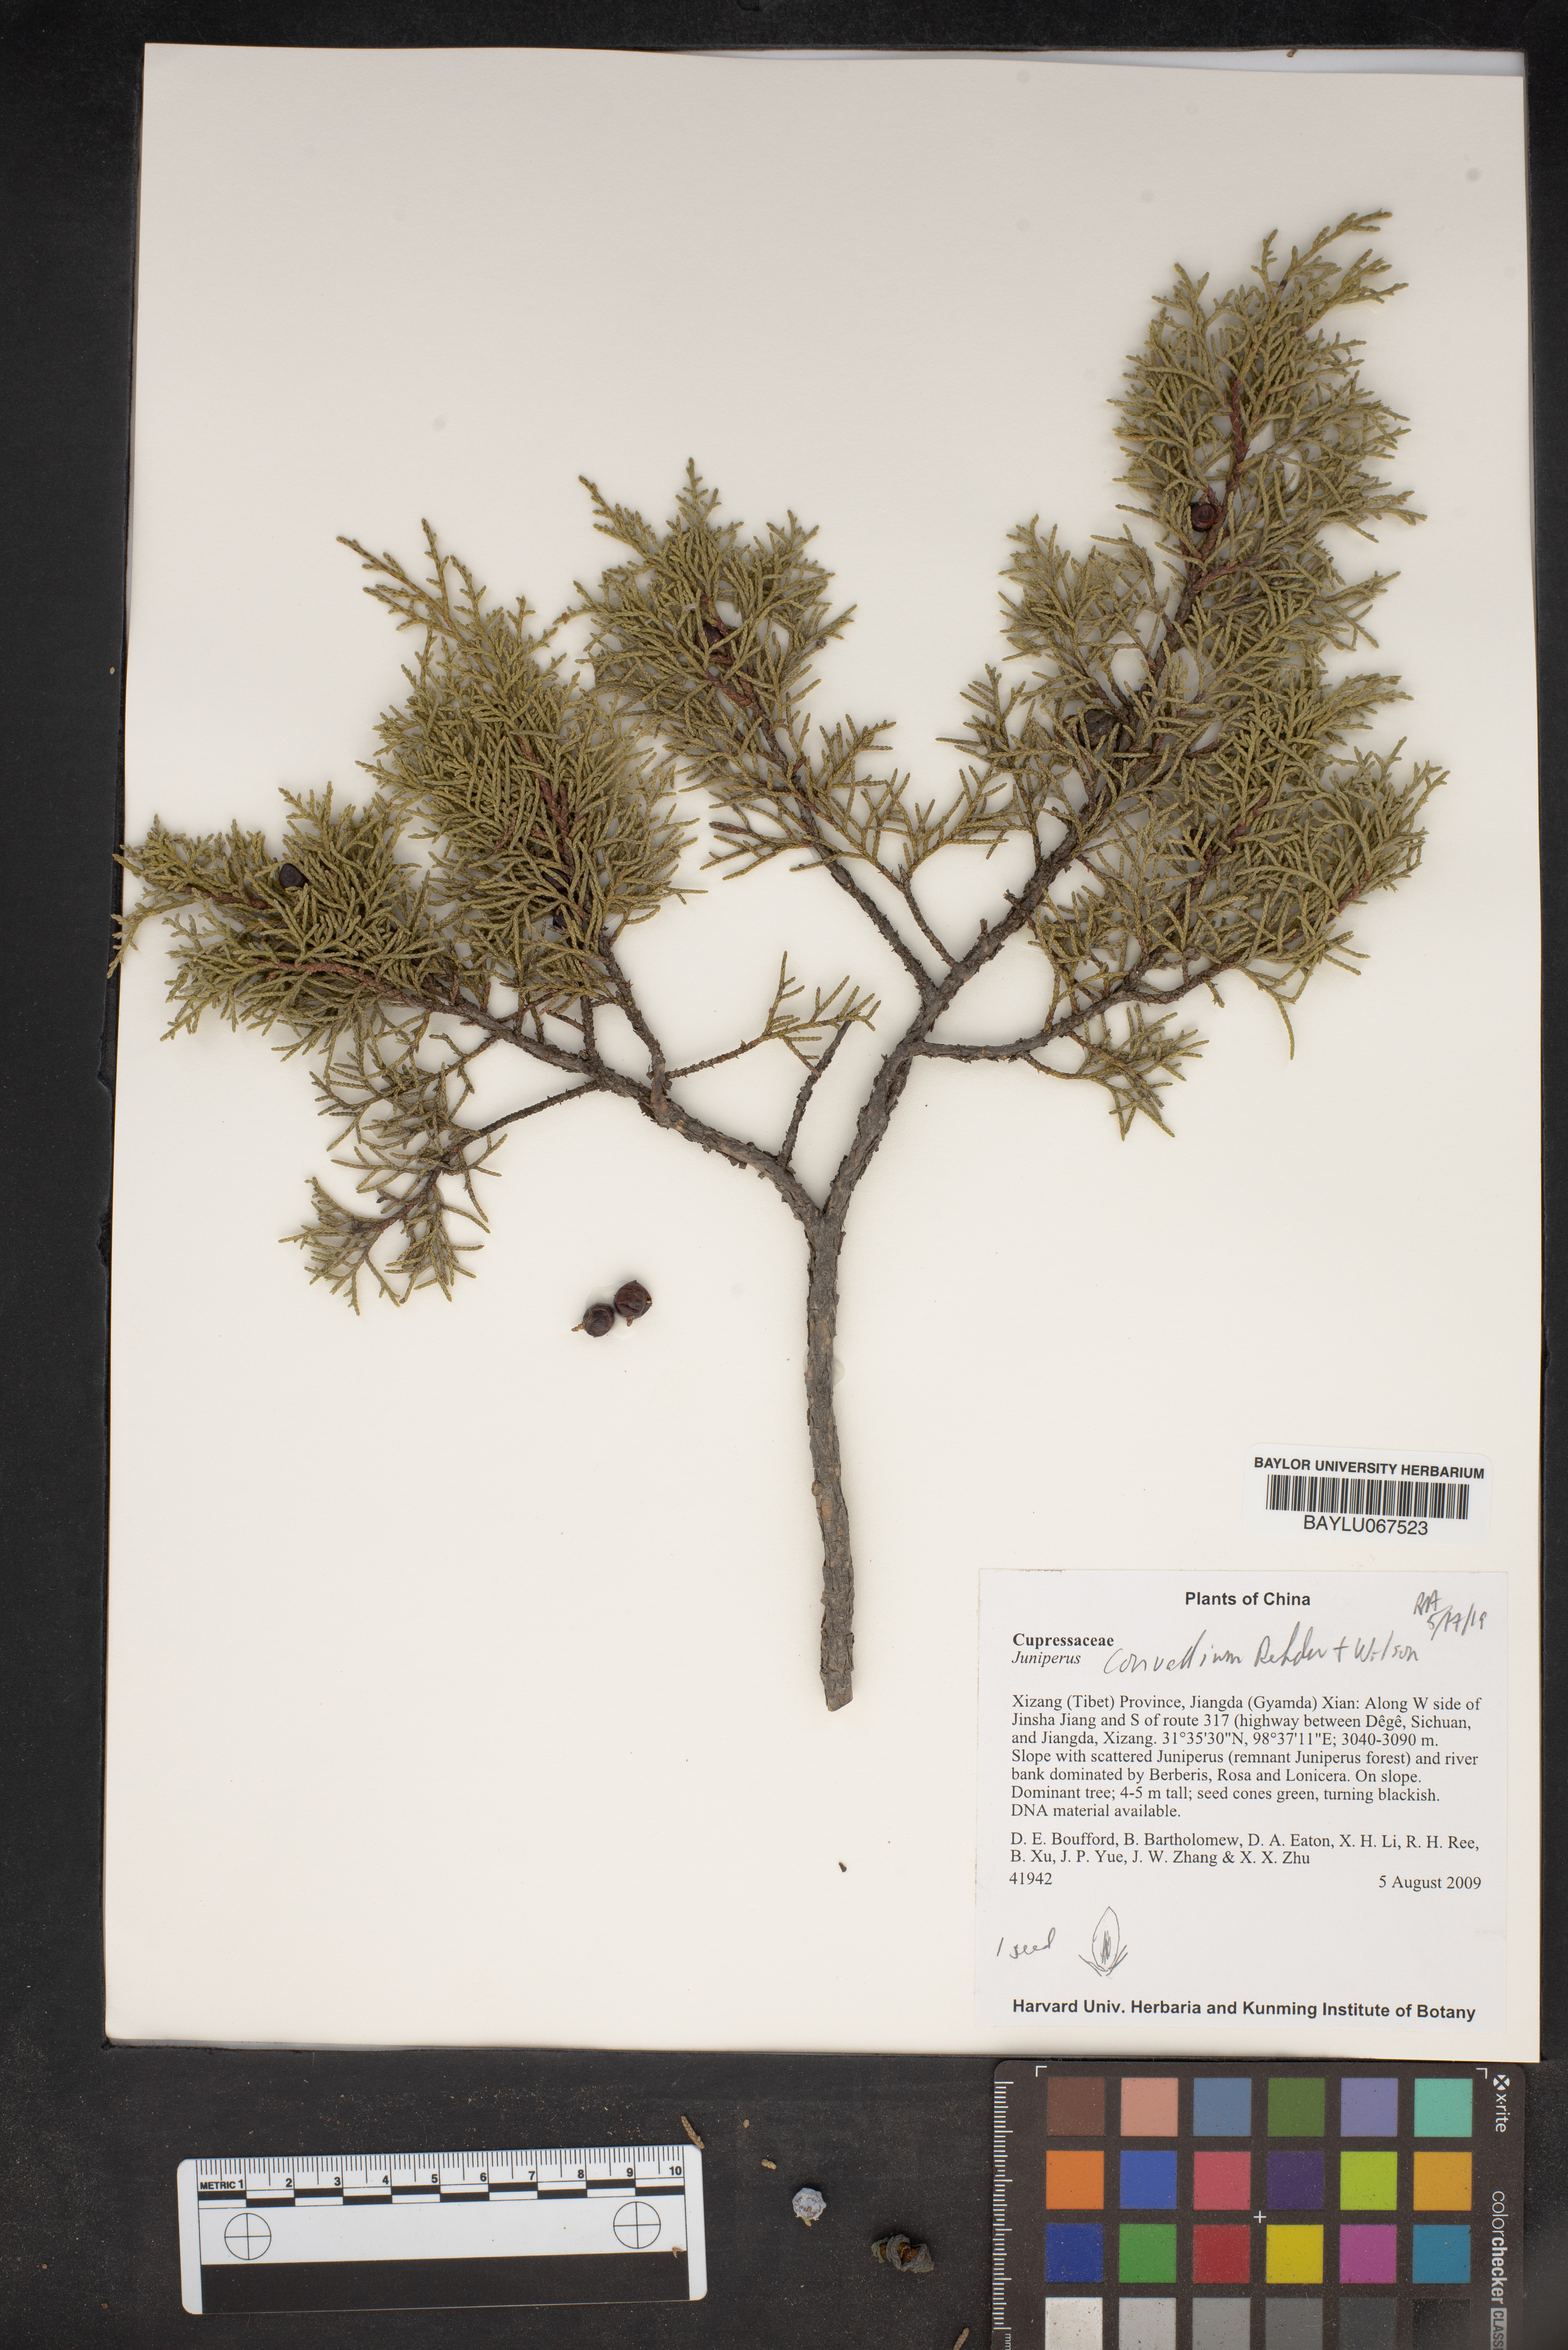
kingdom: Plantae
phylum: Tracheophyta
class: Pinopsida
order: Pinales
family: Cupressaceae
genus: Juniperus
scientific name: Juniperus convallium
